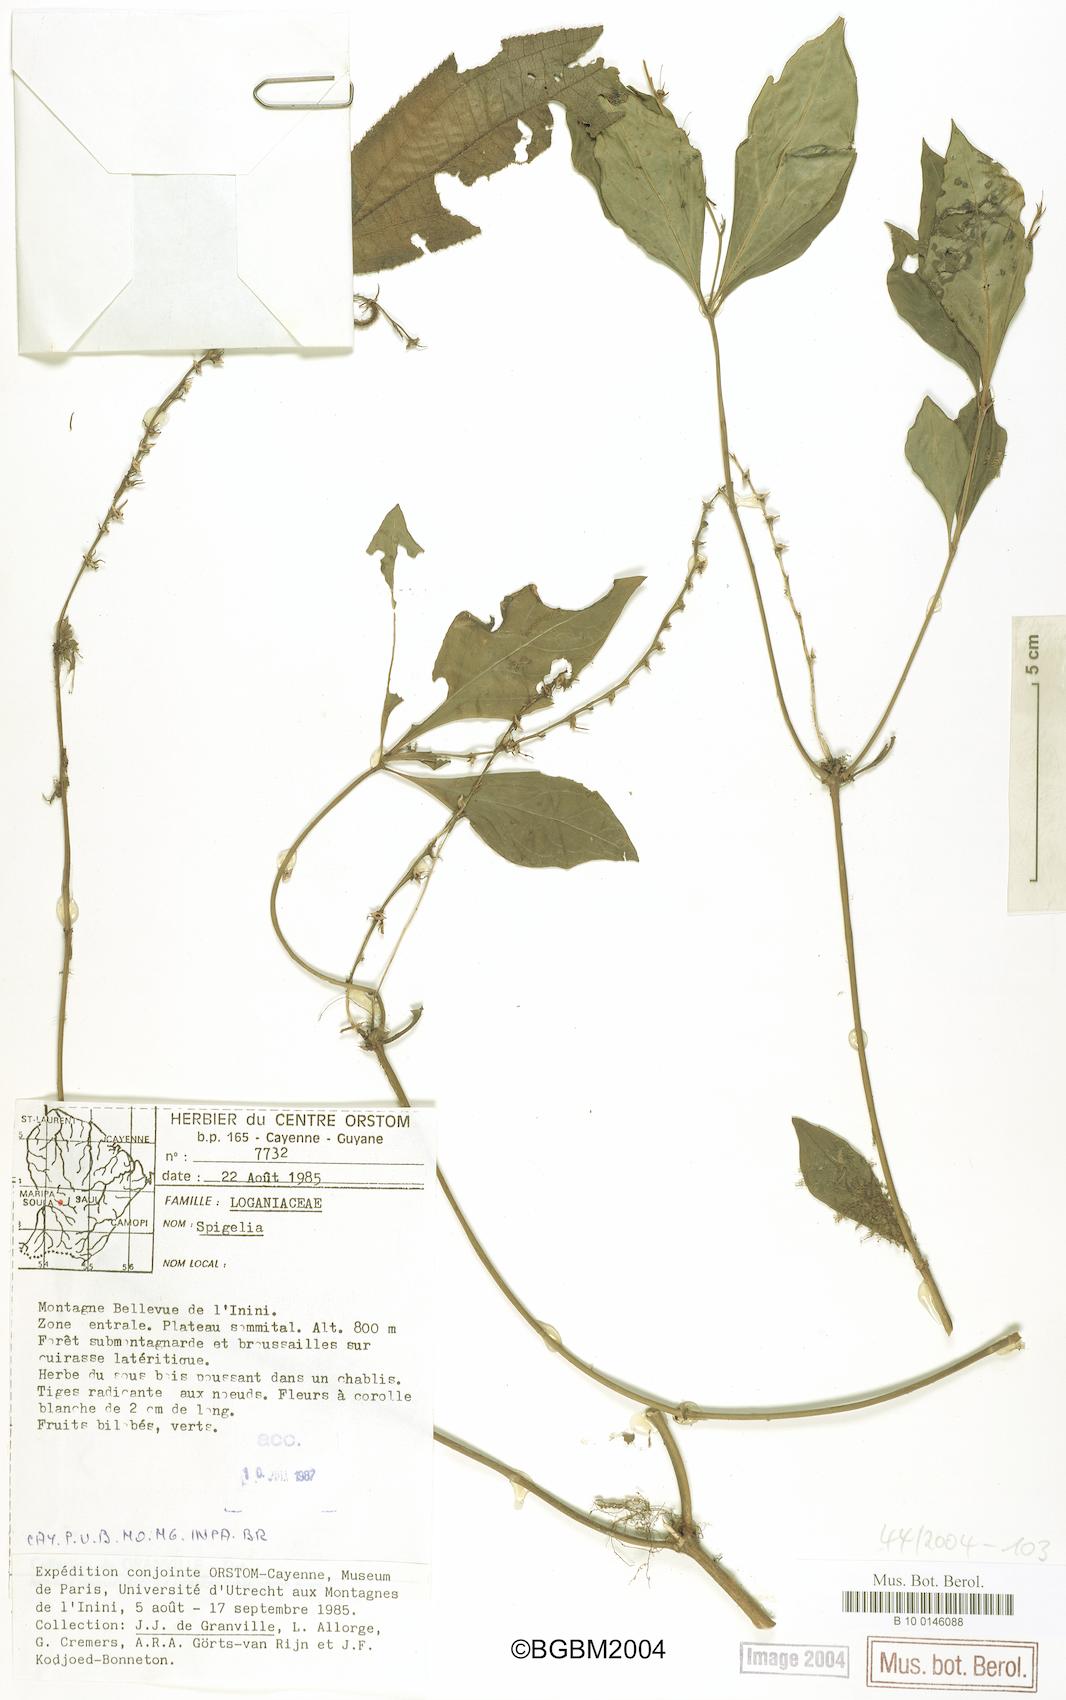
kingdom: Plantae
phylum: Tracheophyta
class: Magnoliopsida
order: Gentianales
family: Loganiaceae
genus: Spigelia
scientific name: Spigelia
